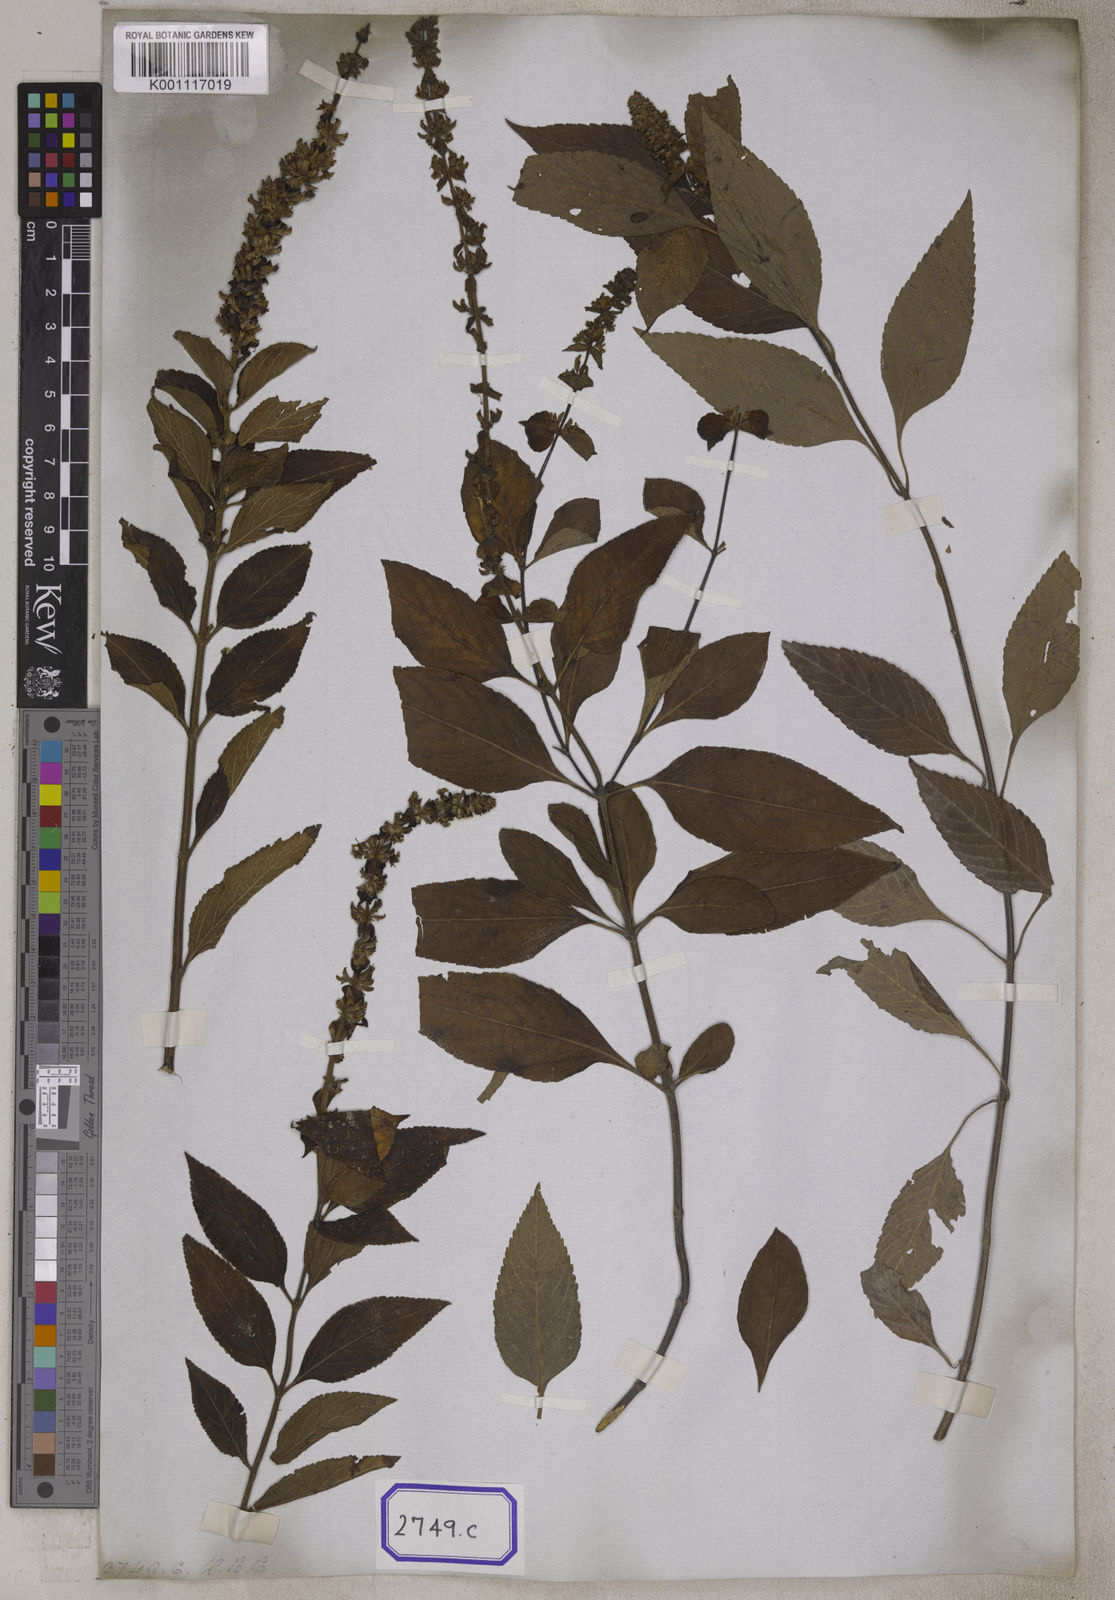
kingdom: Plantae
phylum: Tracheophyta
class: Magnoliopsida
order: Lamiales
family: Lamiaceae
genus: Platostoma
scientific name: Platostoma
